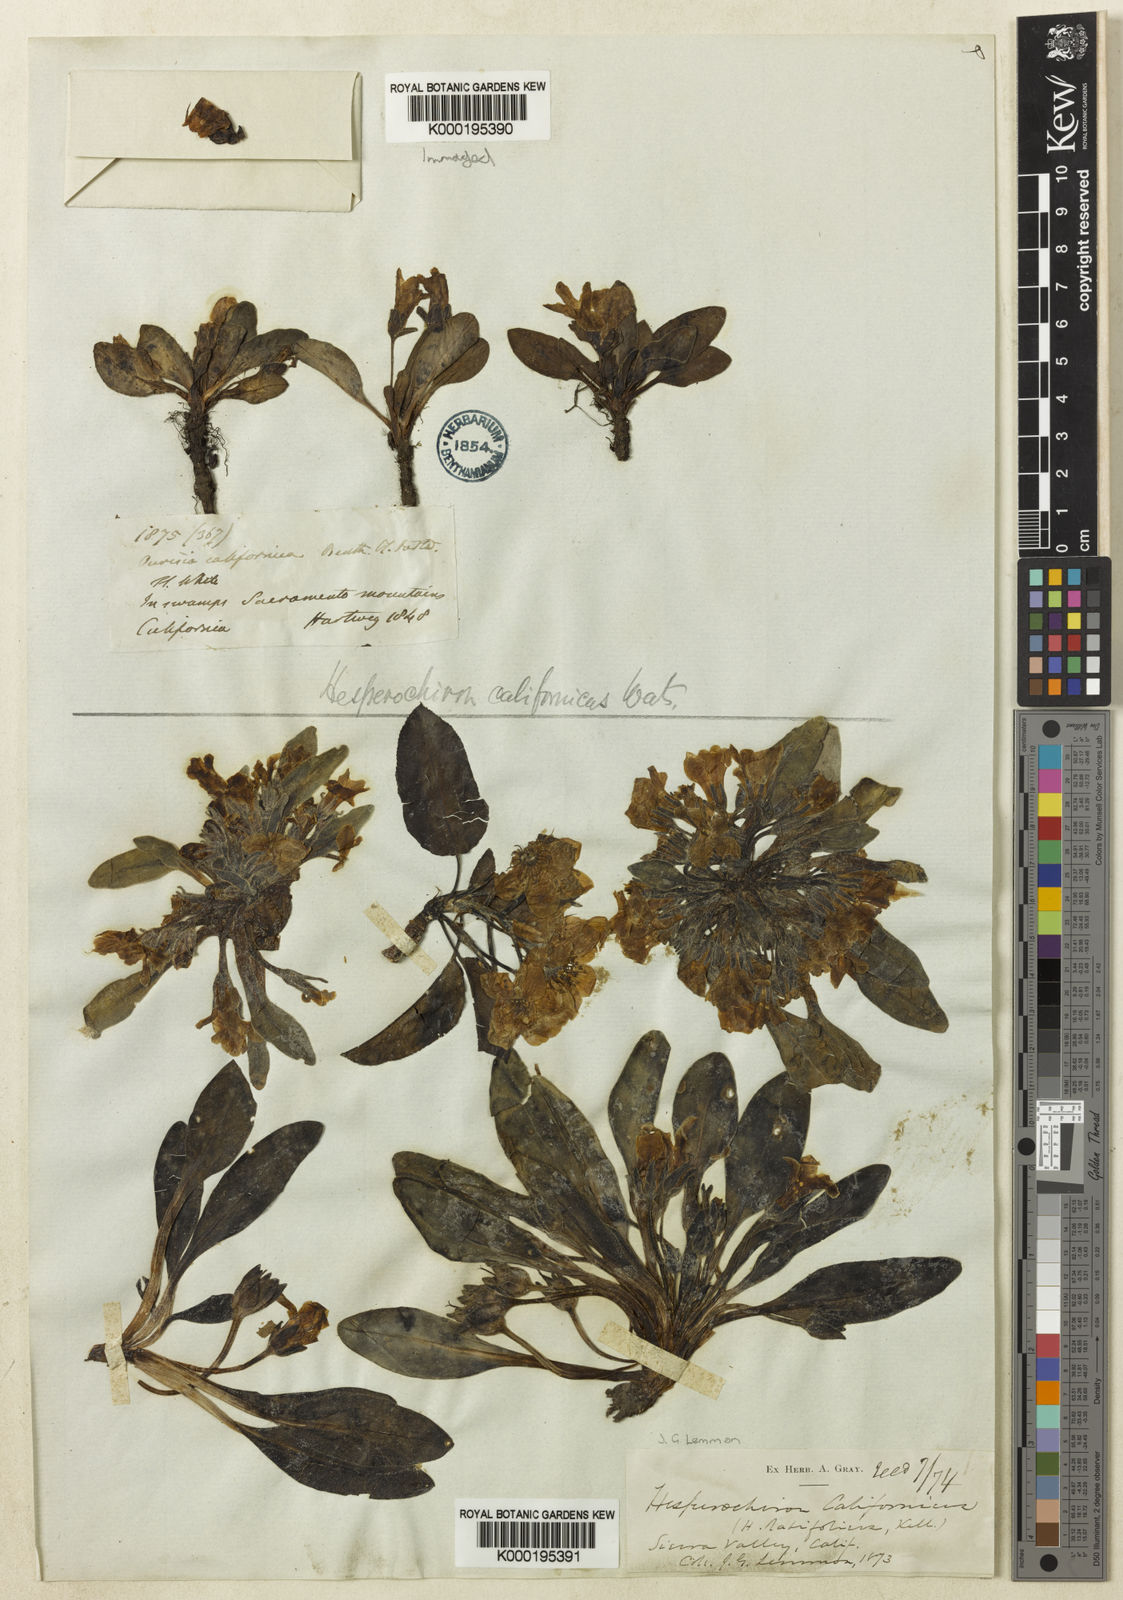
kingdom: Plantae
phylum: Tracheophyta
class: Magnoliopsida
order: Boraginales
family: Hydrophyllaceae
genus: Hesperochiron
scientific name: Hesperochiron californicus
